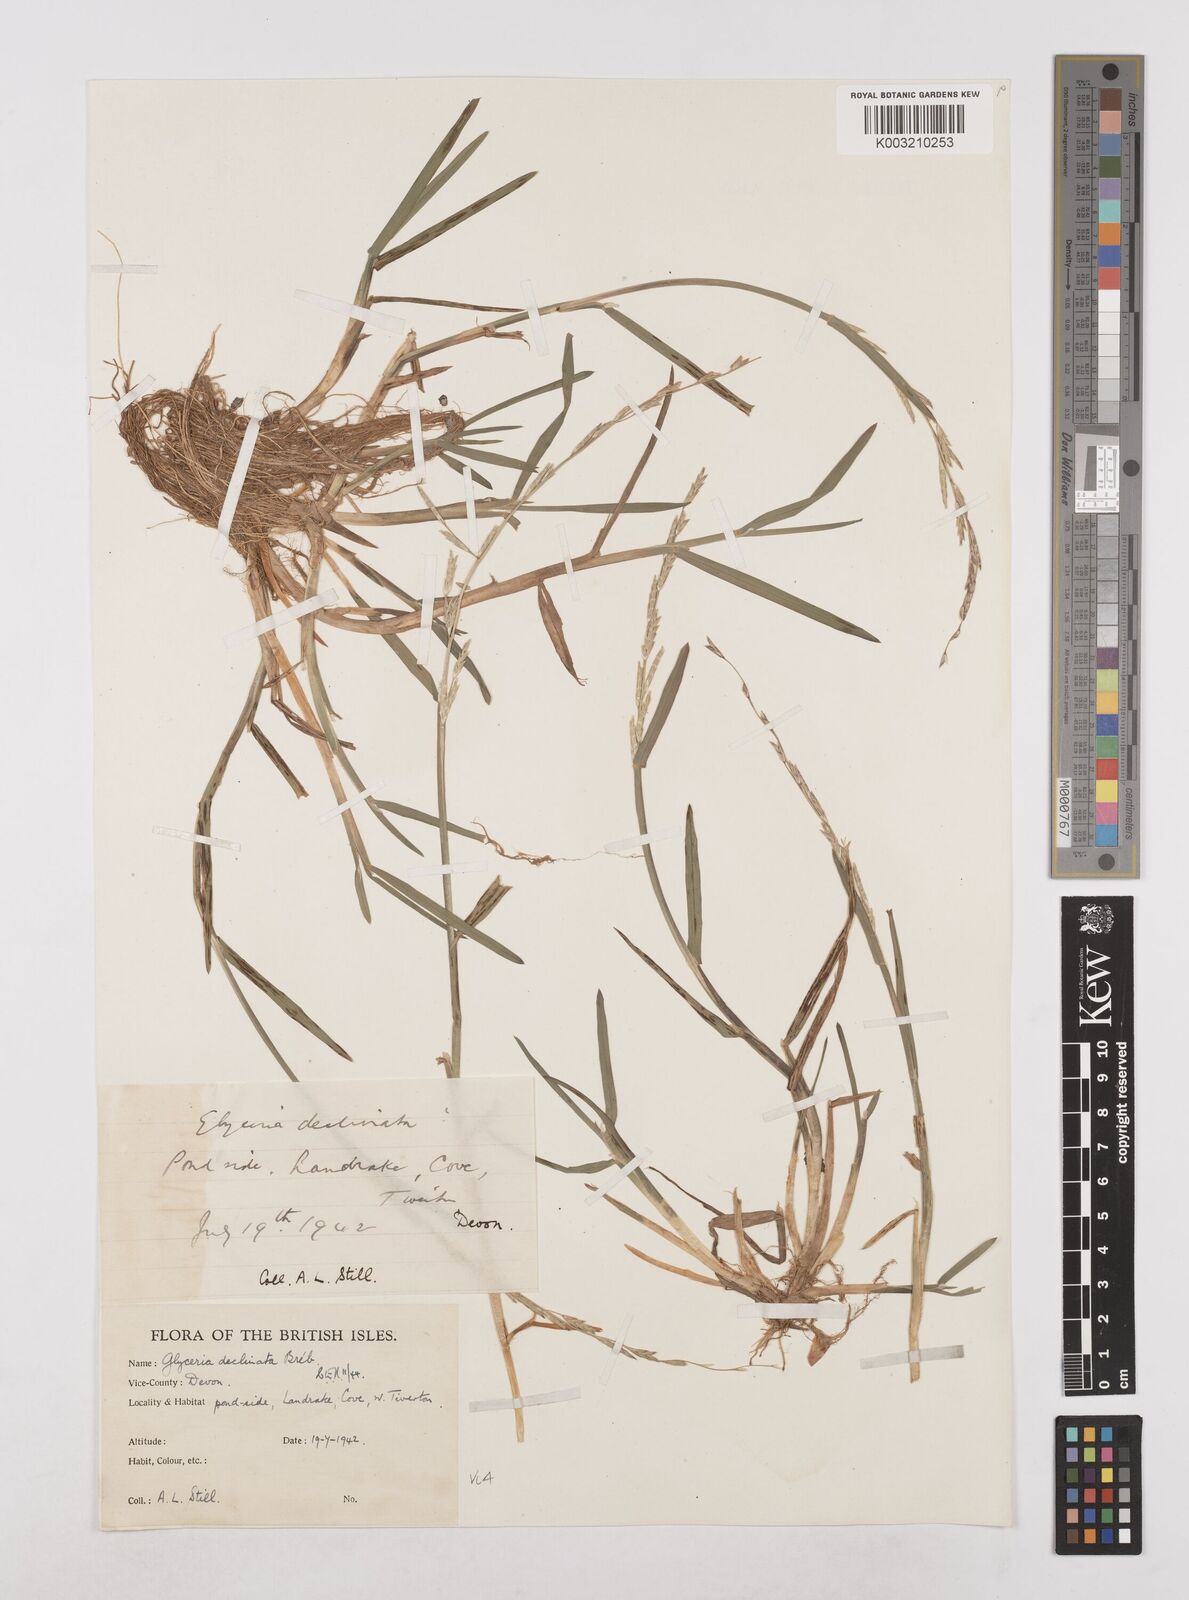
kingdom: Plantae
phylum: Tracheophyta
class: Liliopsida
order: Poales
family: Poaceae
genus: Glyceria
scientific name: Glyceria declinata
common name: Small sweet-grass
